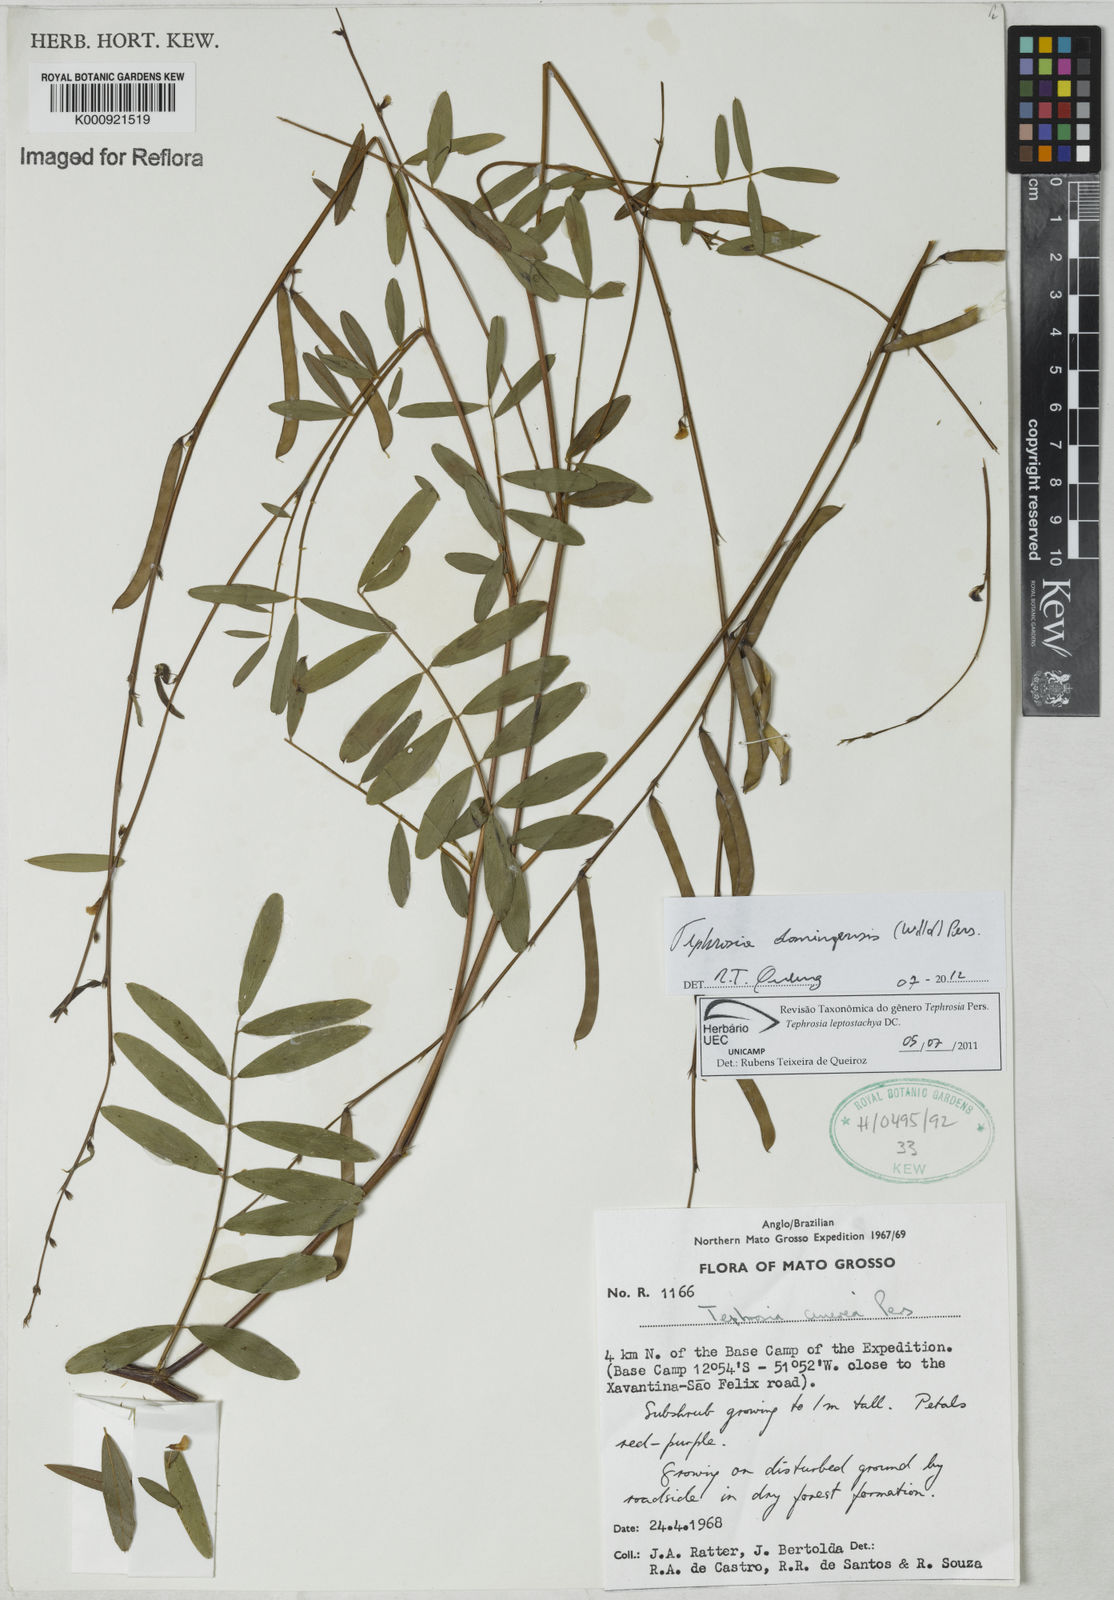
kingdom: Plantae
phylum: Tracheophyta
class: Magnoliopsida
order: Fabales
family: Fabaceae
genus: Tephrosia
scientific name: Tephrosia domingensis
